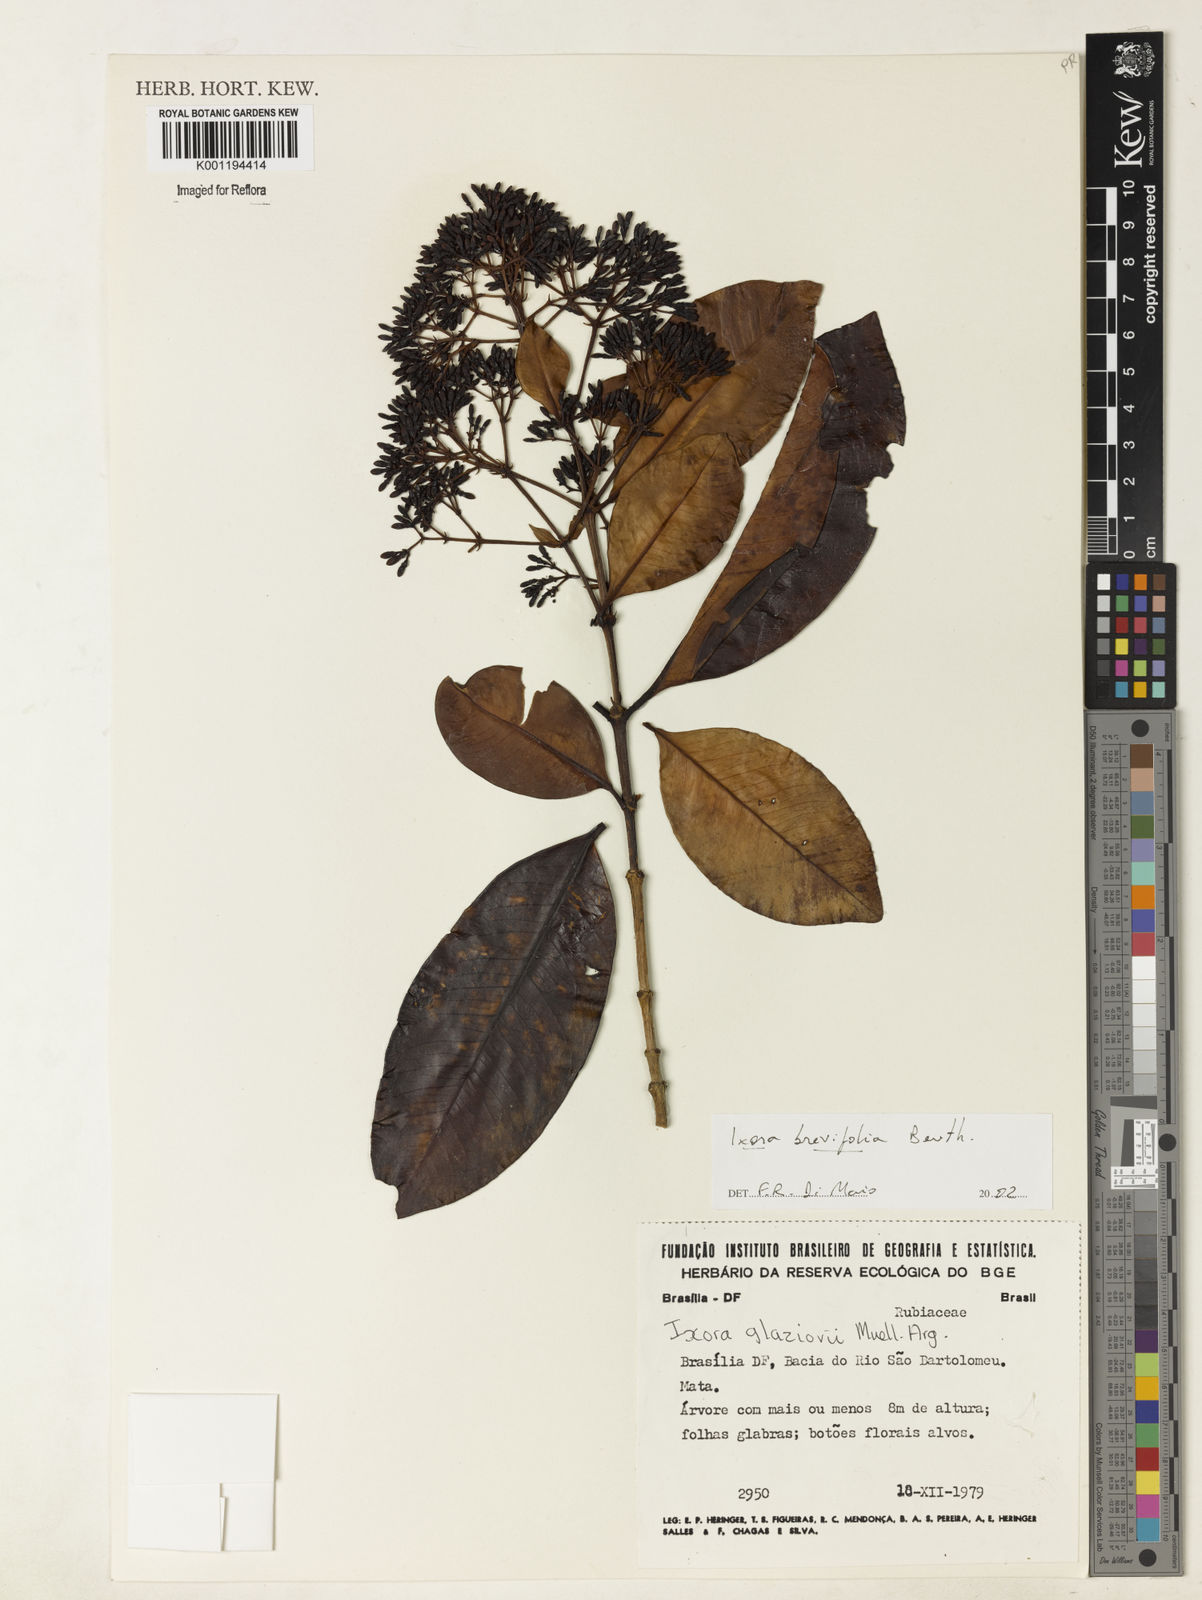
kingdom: Plantae
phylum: Tracheophyta
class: Magnoliopsida
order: Gentianales
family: Rubiaceae
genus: Ixora
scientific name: Ixora brevifolia
